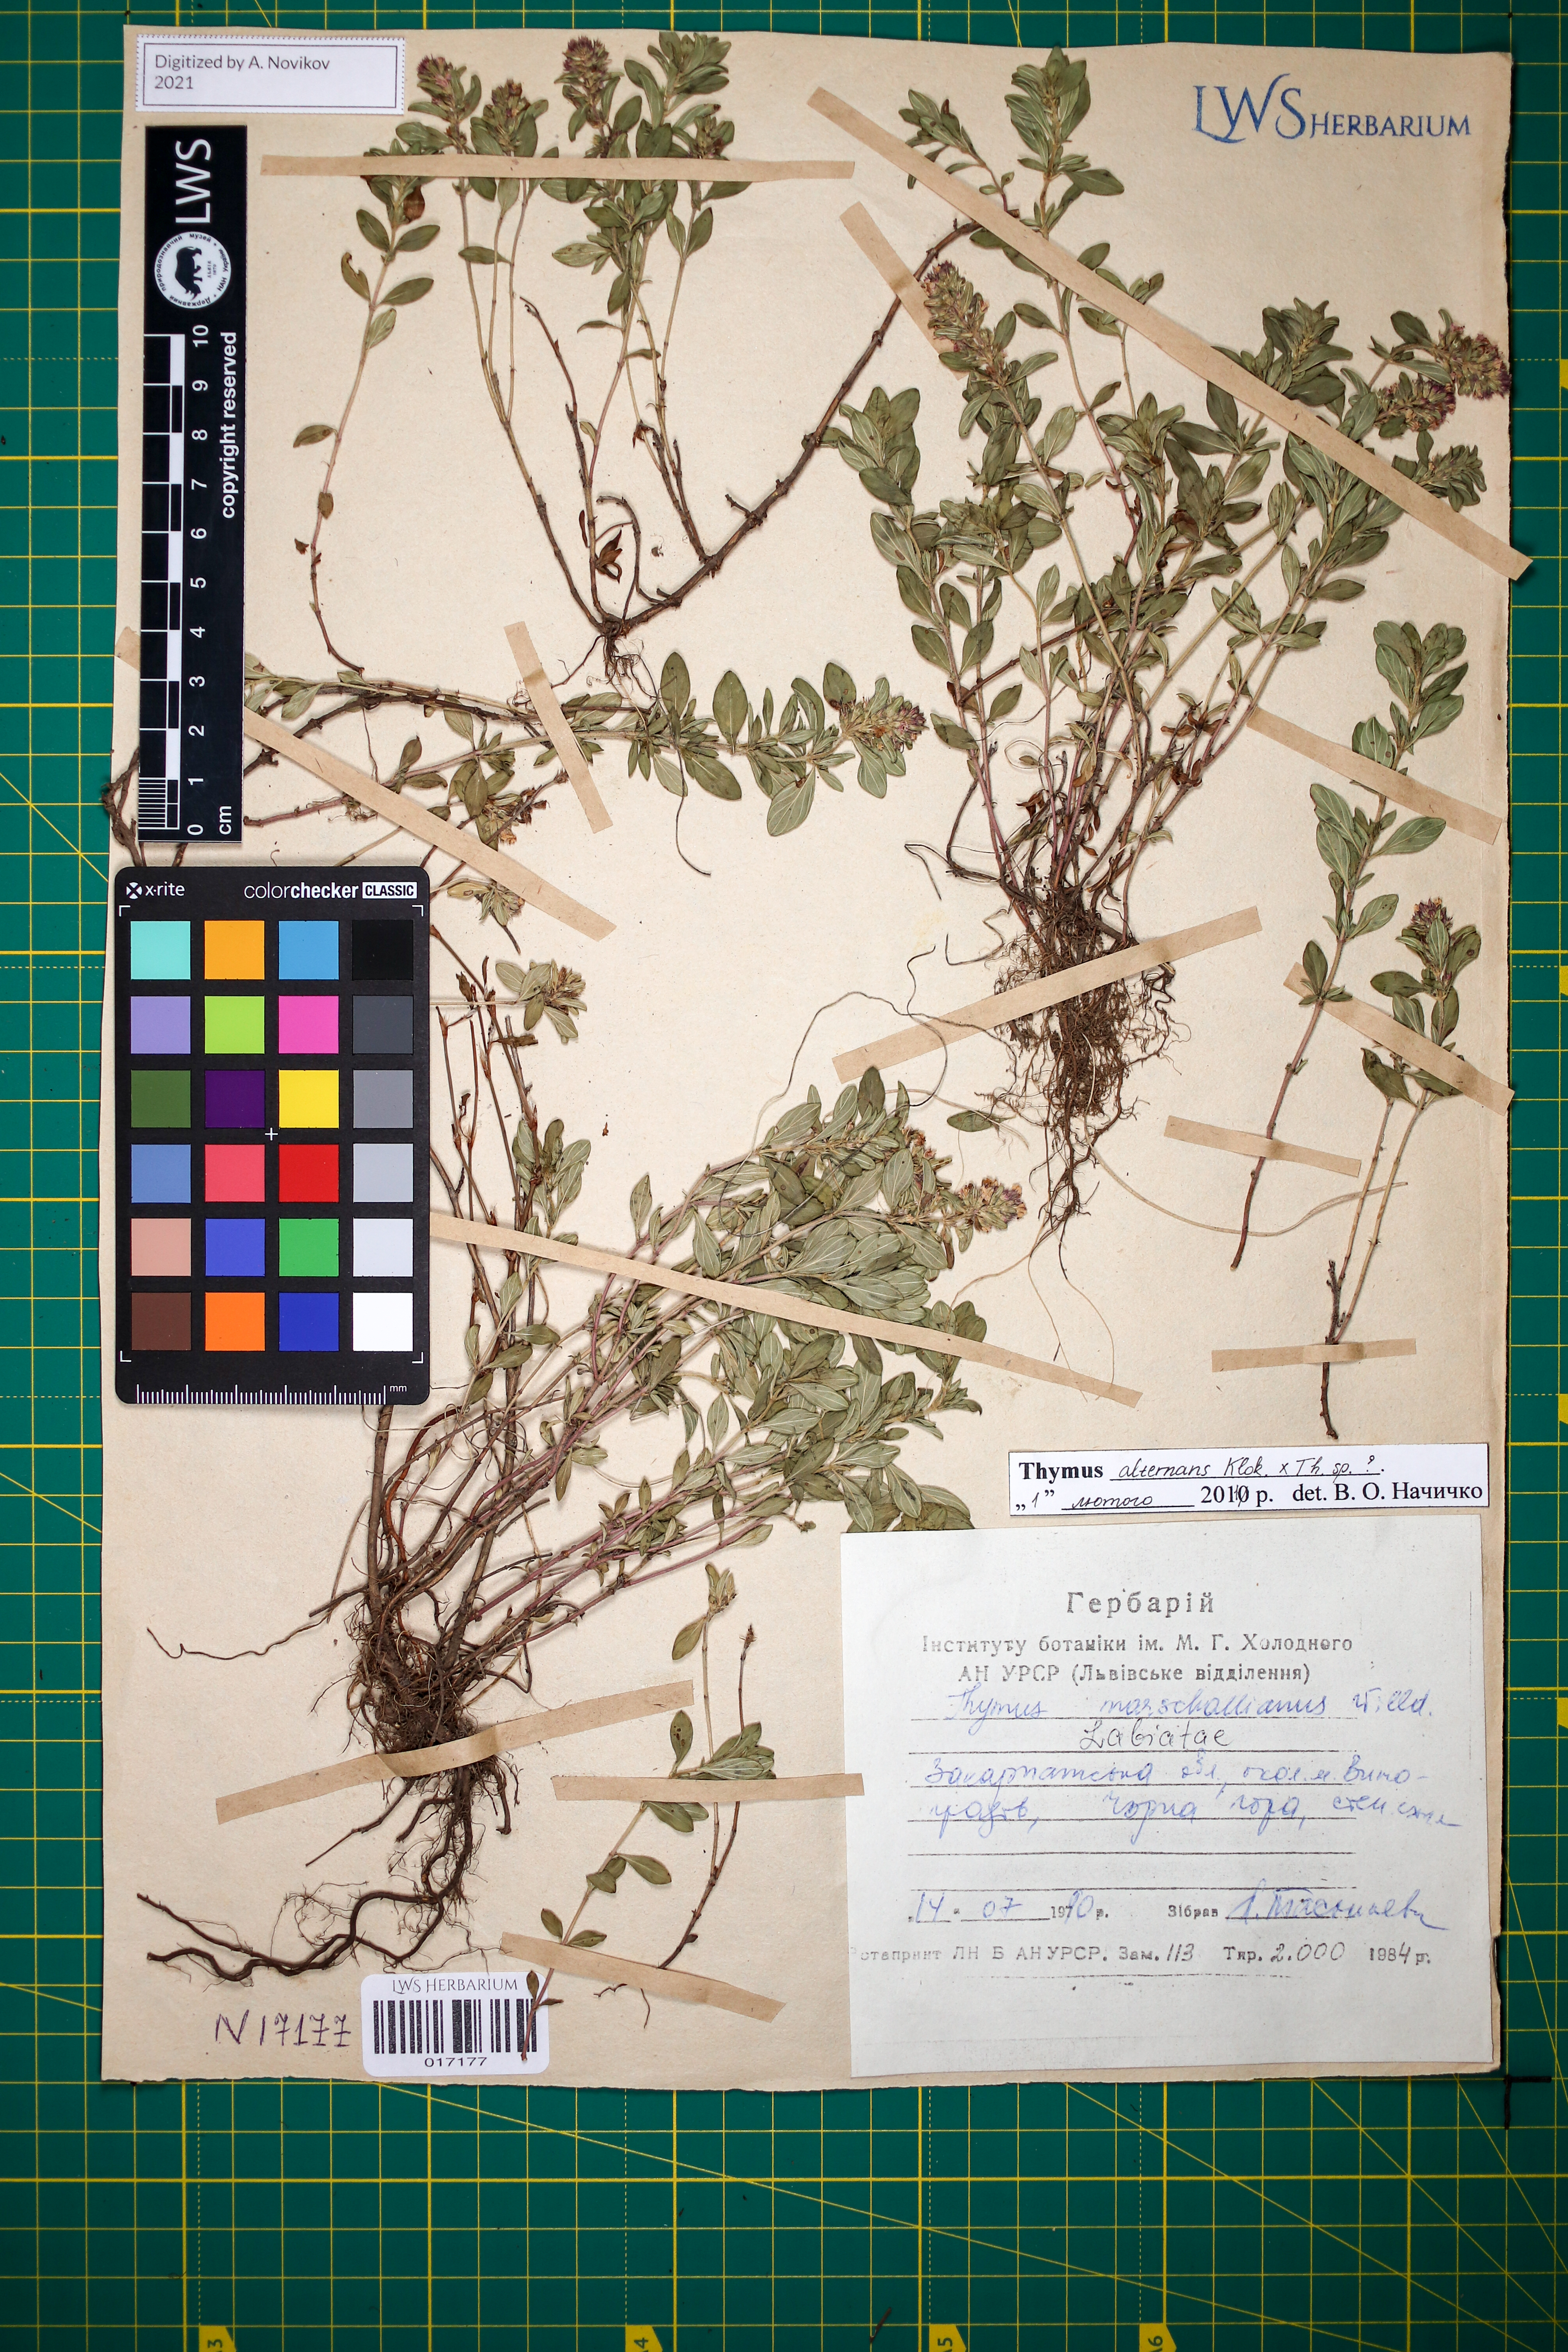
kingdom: Plantae
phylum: Tracheophyta
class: Magnoliopsida
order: Lamiales
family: Lamiaceae
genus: Thymus
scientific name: Thymus alternans
